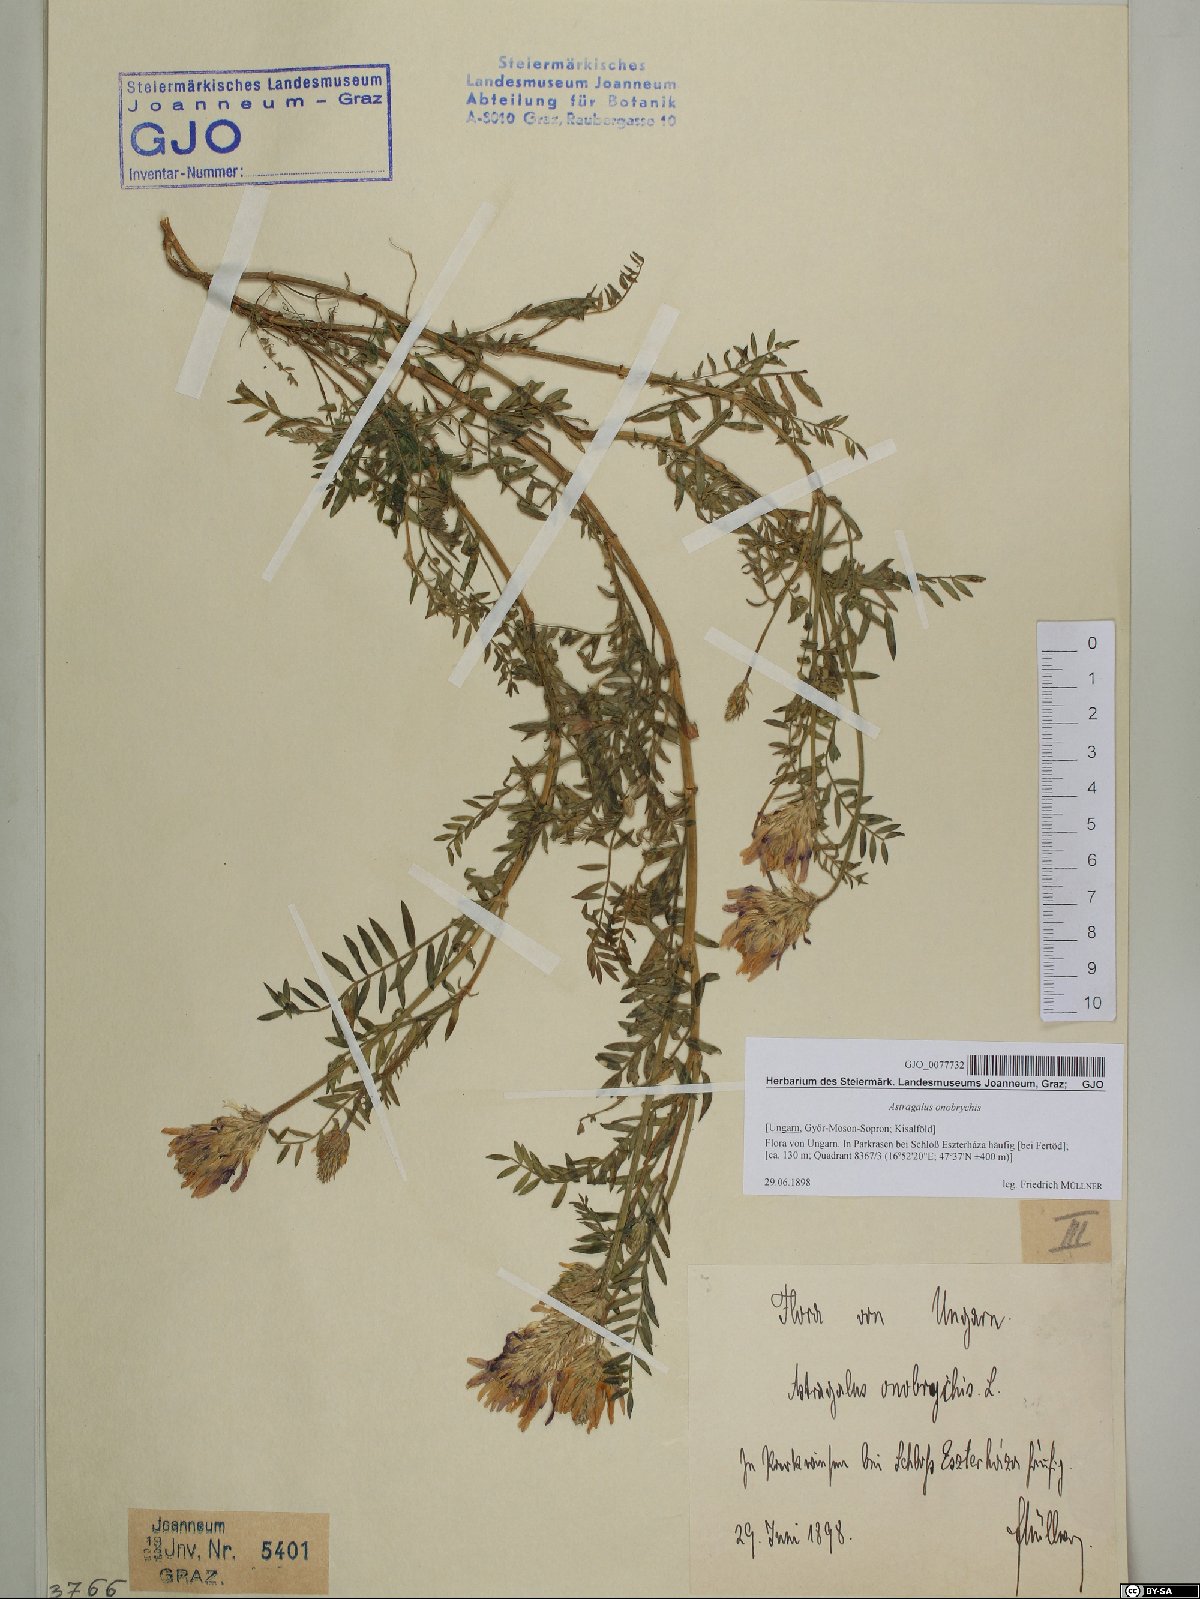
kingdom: Plantae
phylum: Tracheophyta
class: Magnoliopsida
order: Fabales
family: Fabaceae
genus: Astragalus
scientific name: Astragalus onobrychis
